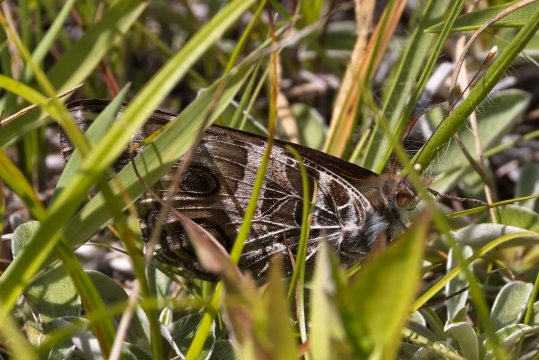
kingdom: Animalia
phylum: Arthropoda
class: Insecta
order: Lepidoptera
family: Nymphalidae
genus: Vanessa
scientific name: Vanessa virginiensis
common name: American Lady
